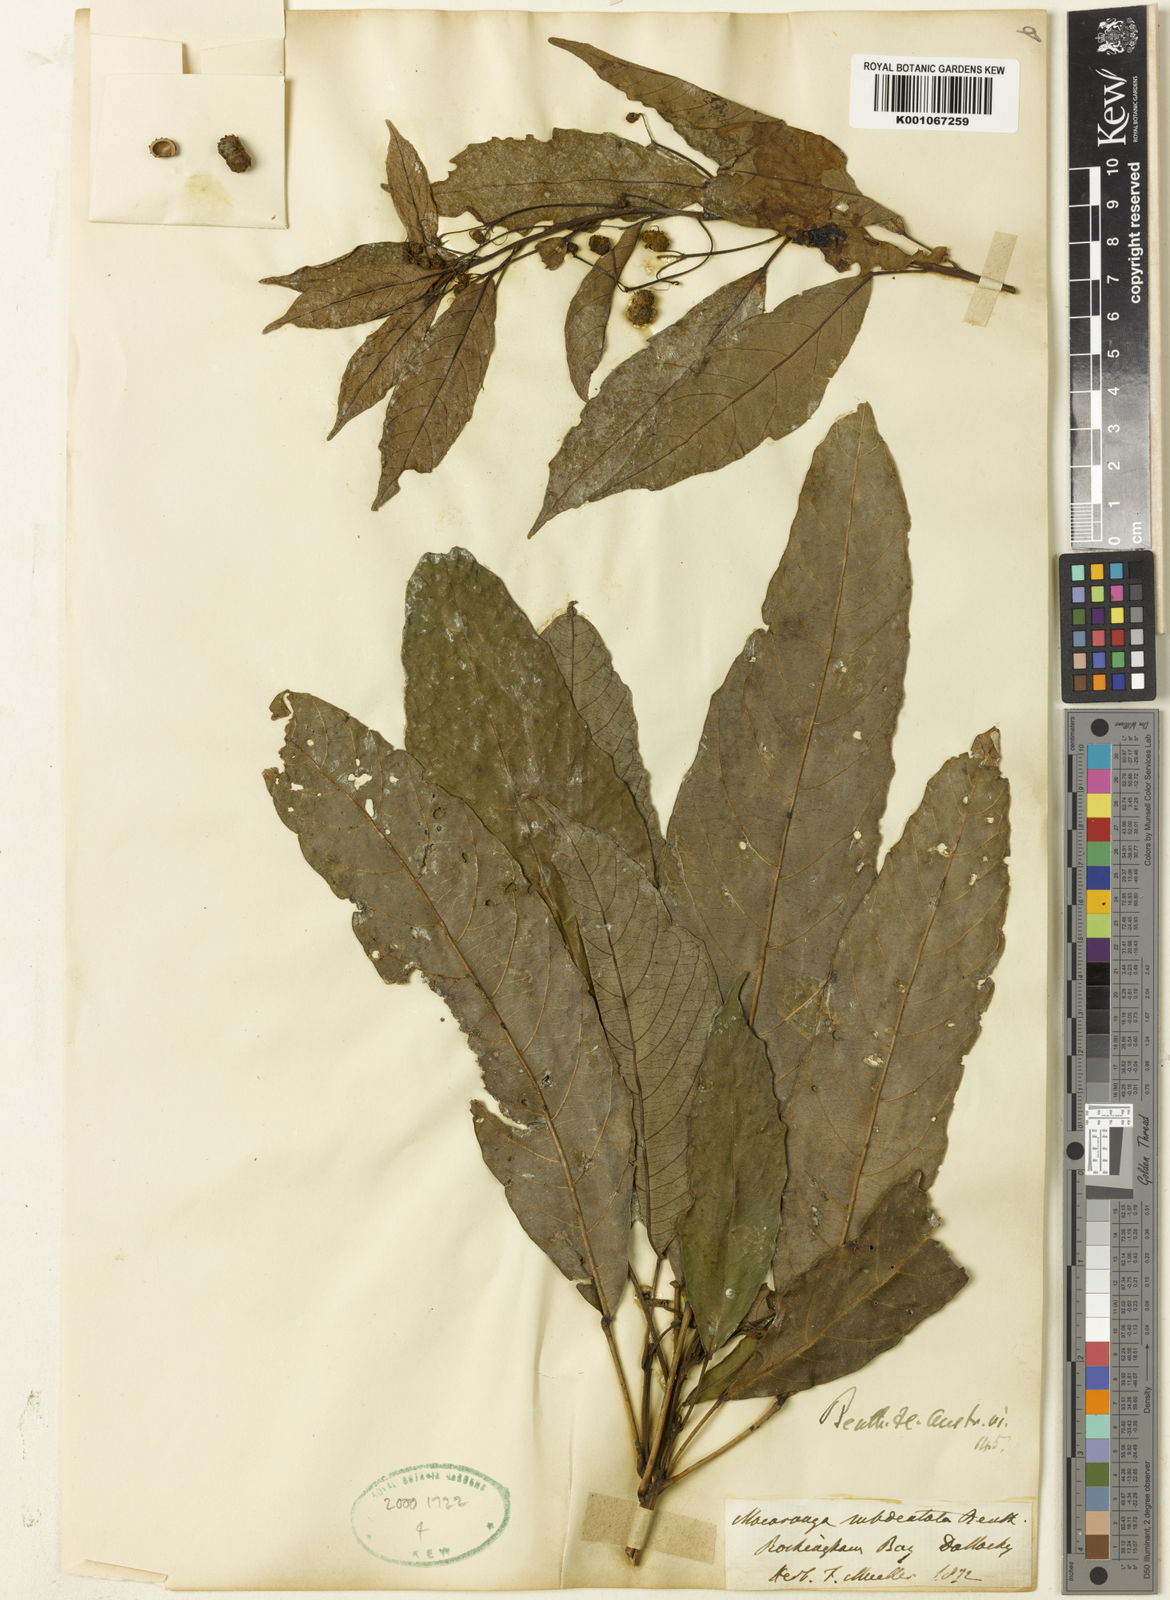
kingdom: Plantae
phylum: Tracheophyta
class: Magnoliopsida
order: Malpighiales
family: Euphorbiaceae
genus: Macaranga
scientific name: Macaranga subdentata
